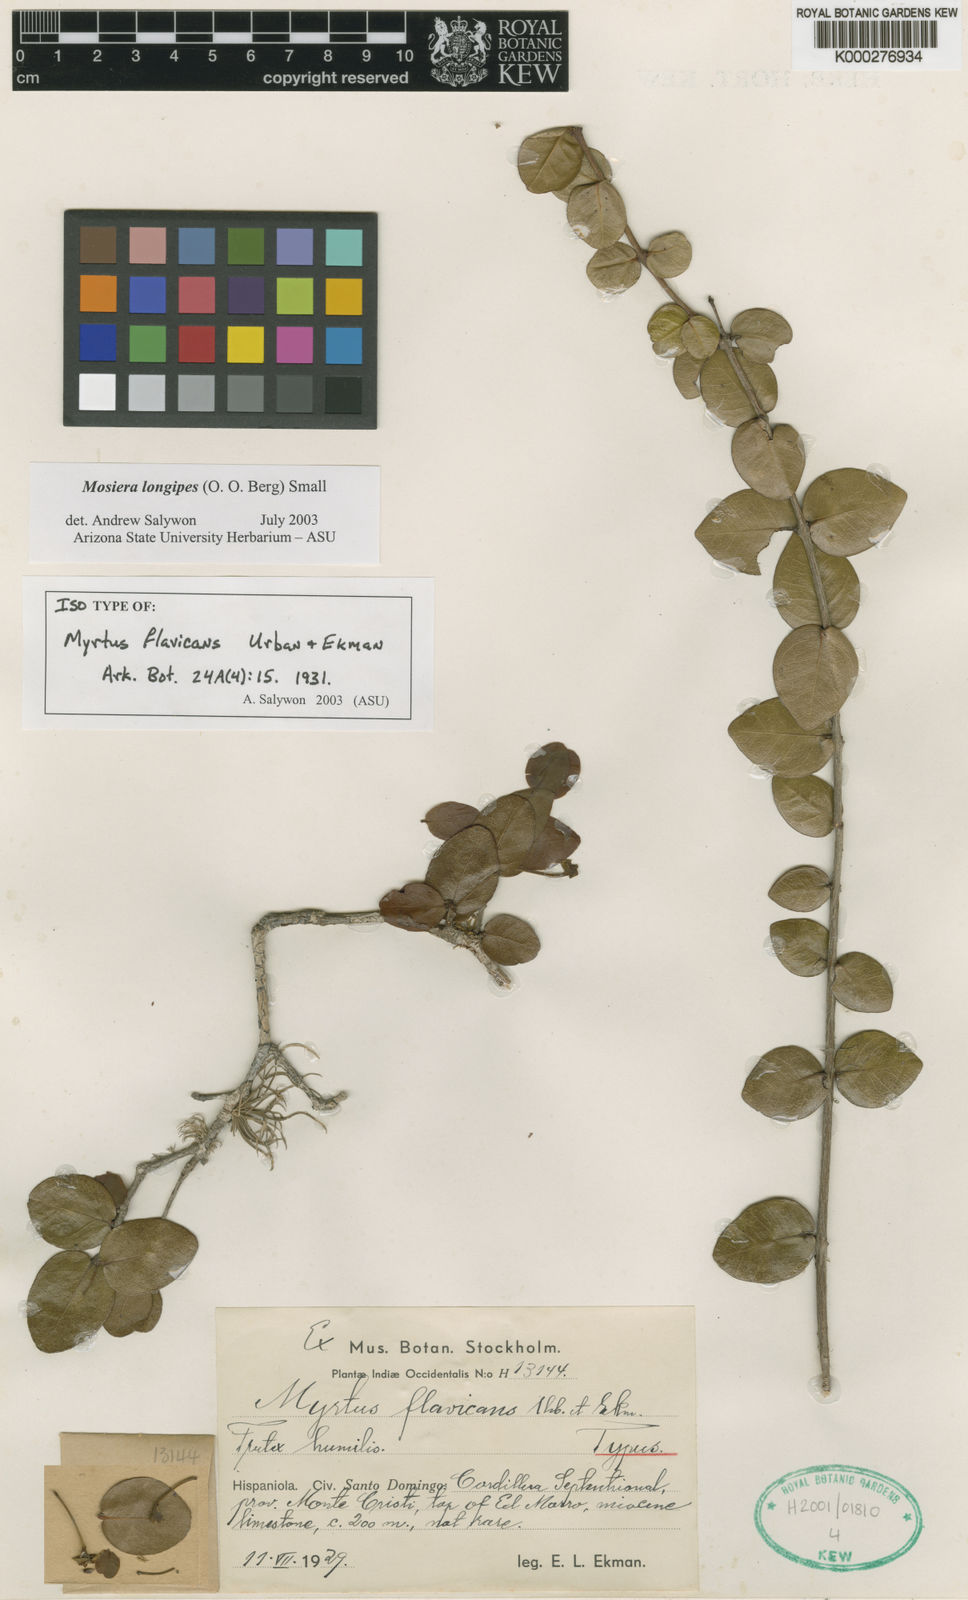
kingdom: Plantae
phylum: Tracheophyta
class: Magnoliopsida
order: Myrtales
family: Myrtaceae
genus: Mosiera
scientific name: Mosiera longipes
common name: Bahama stopper
